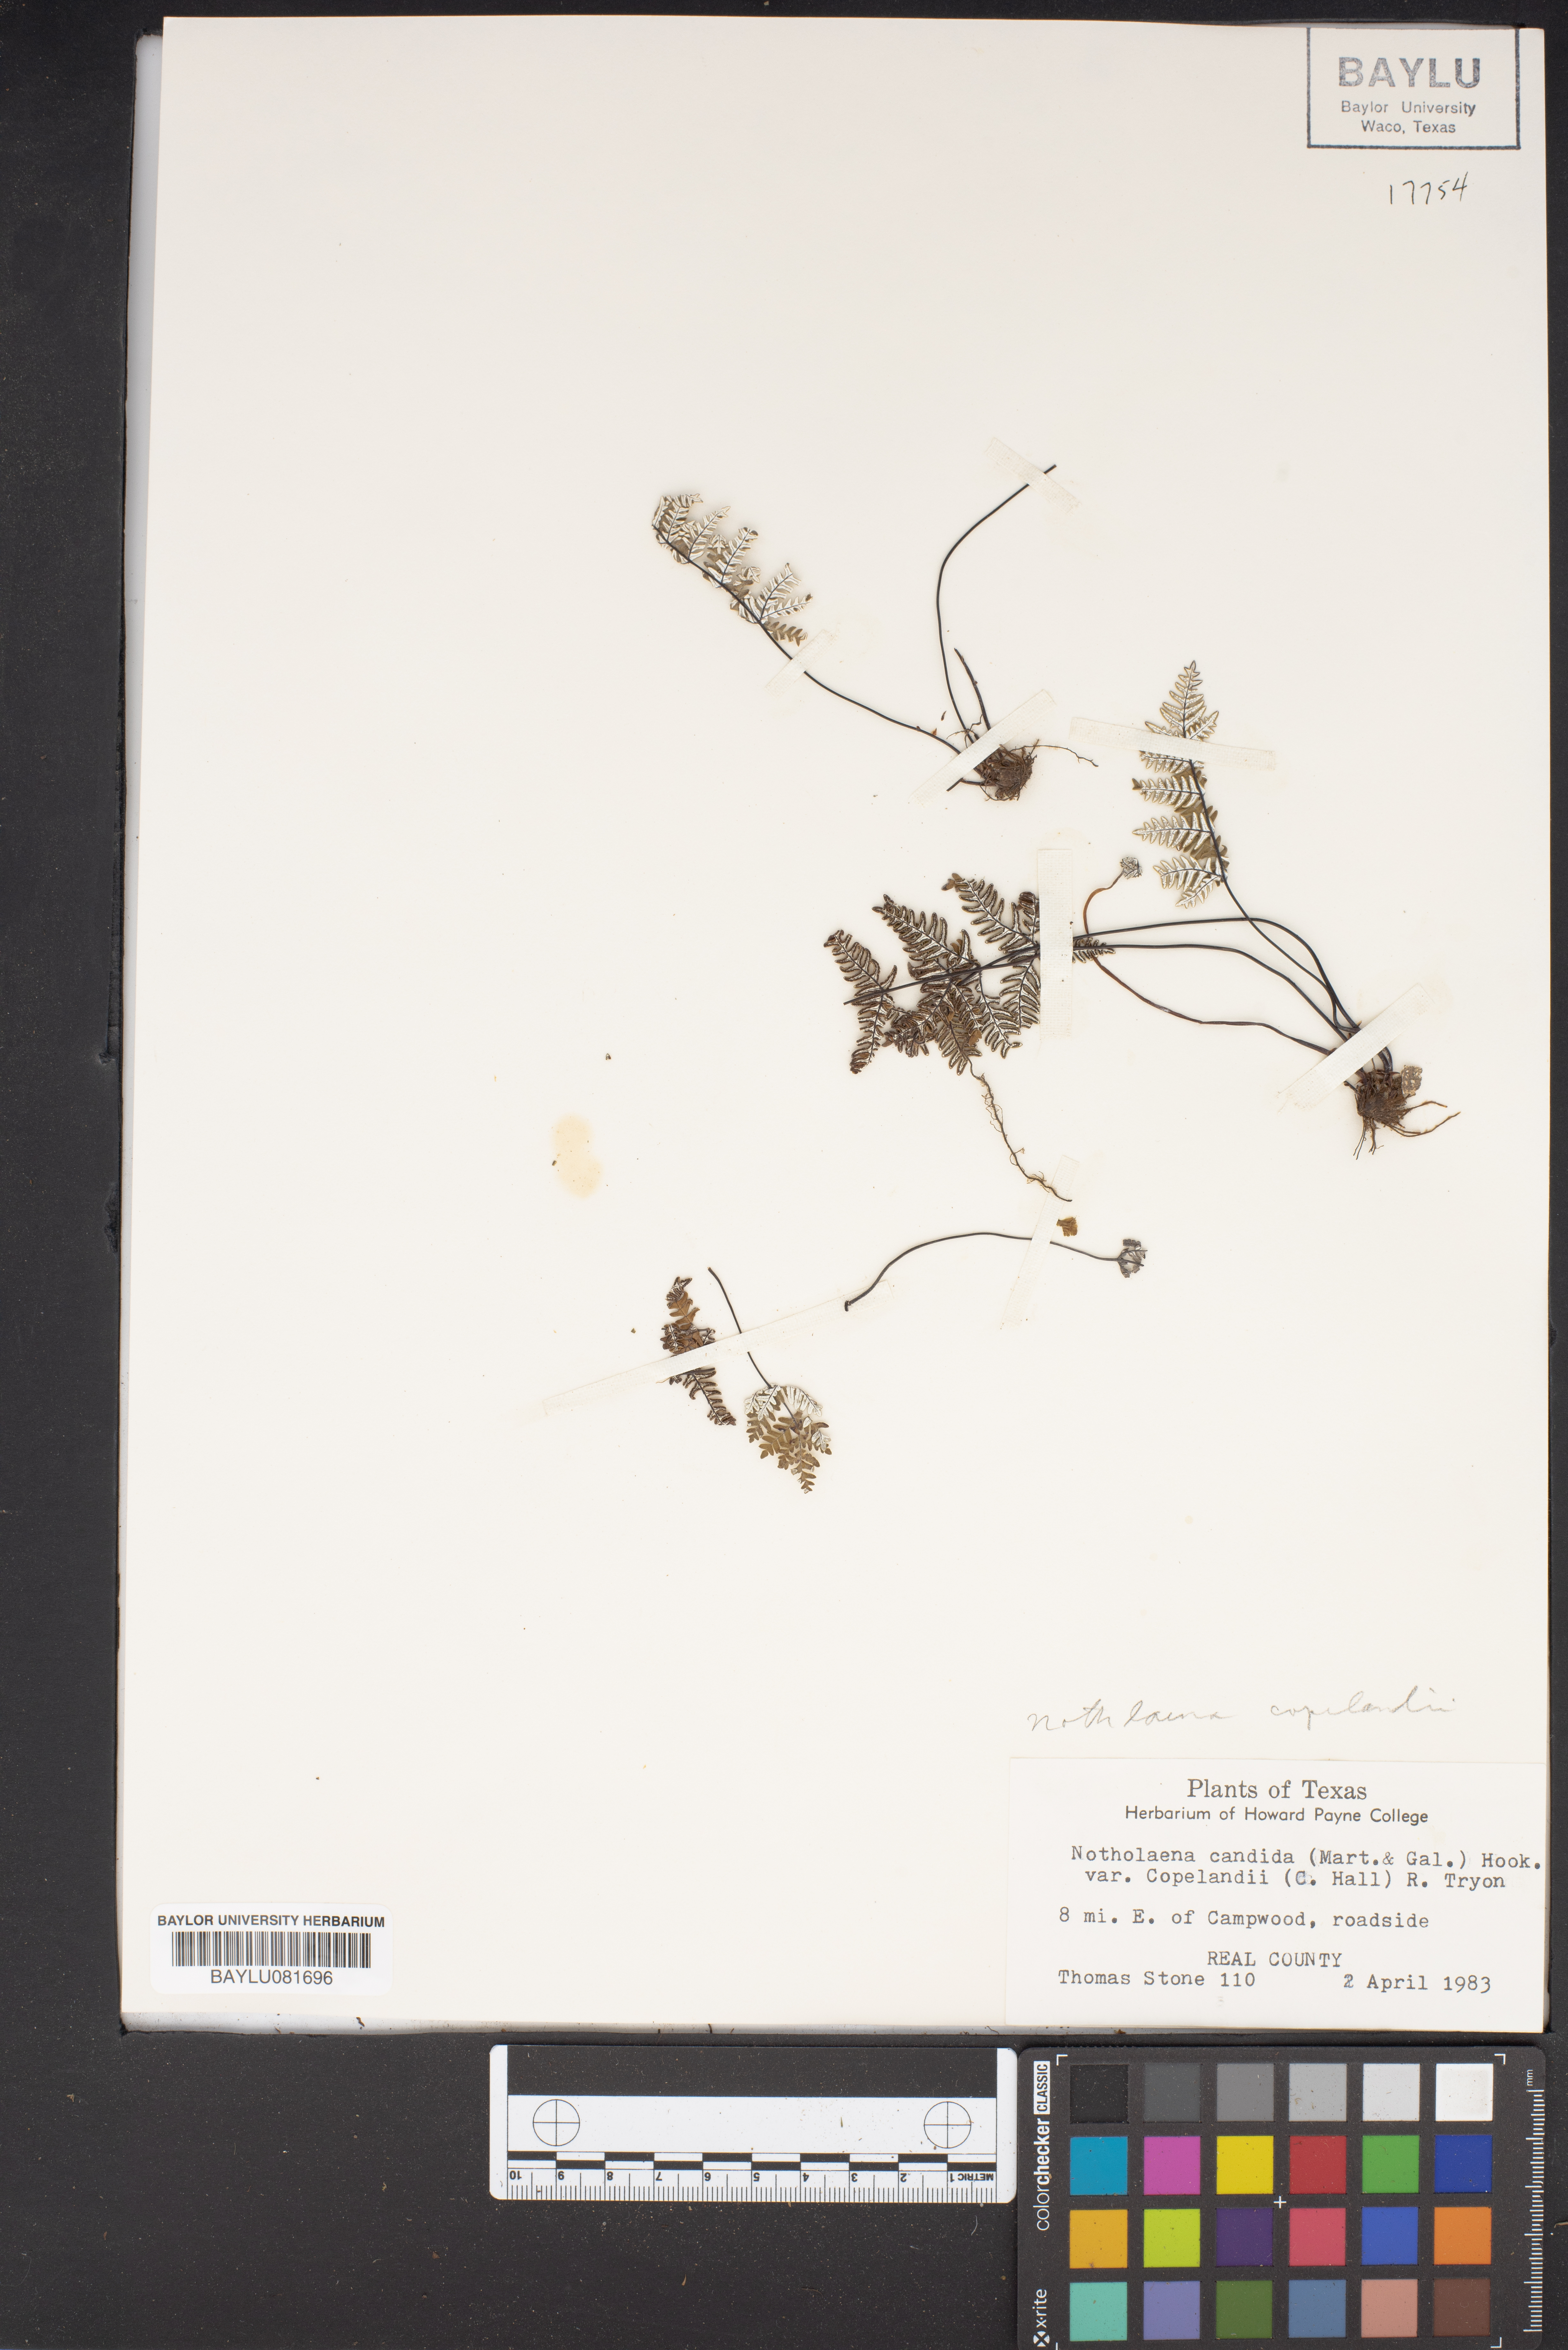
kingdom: Plantae
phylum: Tracheophyta
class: Polypodiopsida
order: Polypodiales
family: Pteridaceae
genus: Notholaena
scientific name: Notholaena candida
